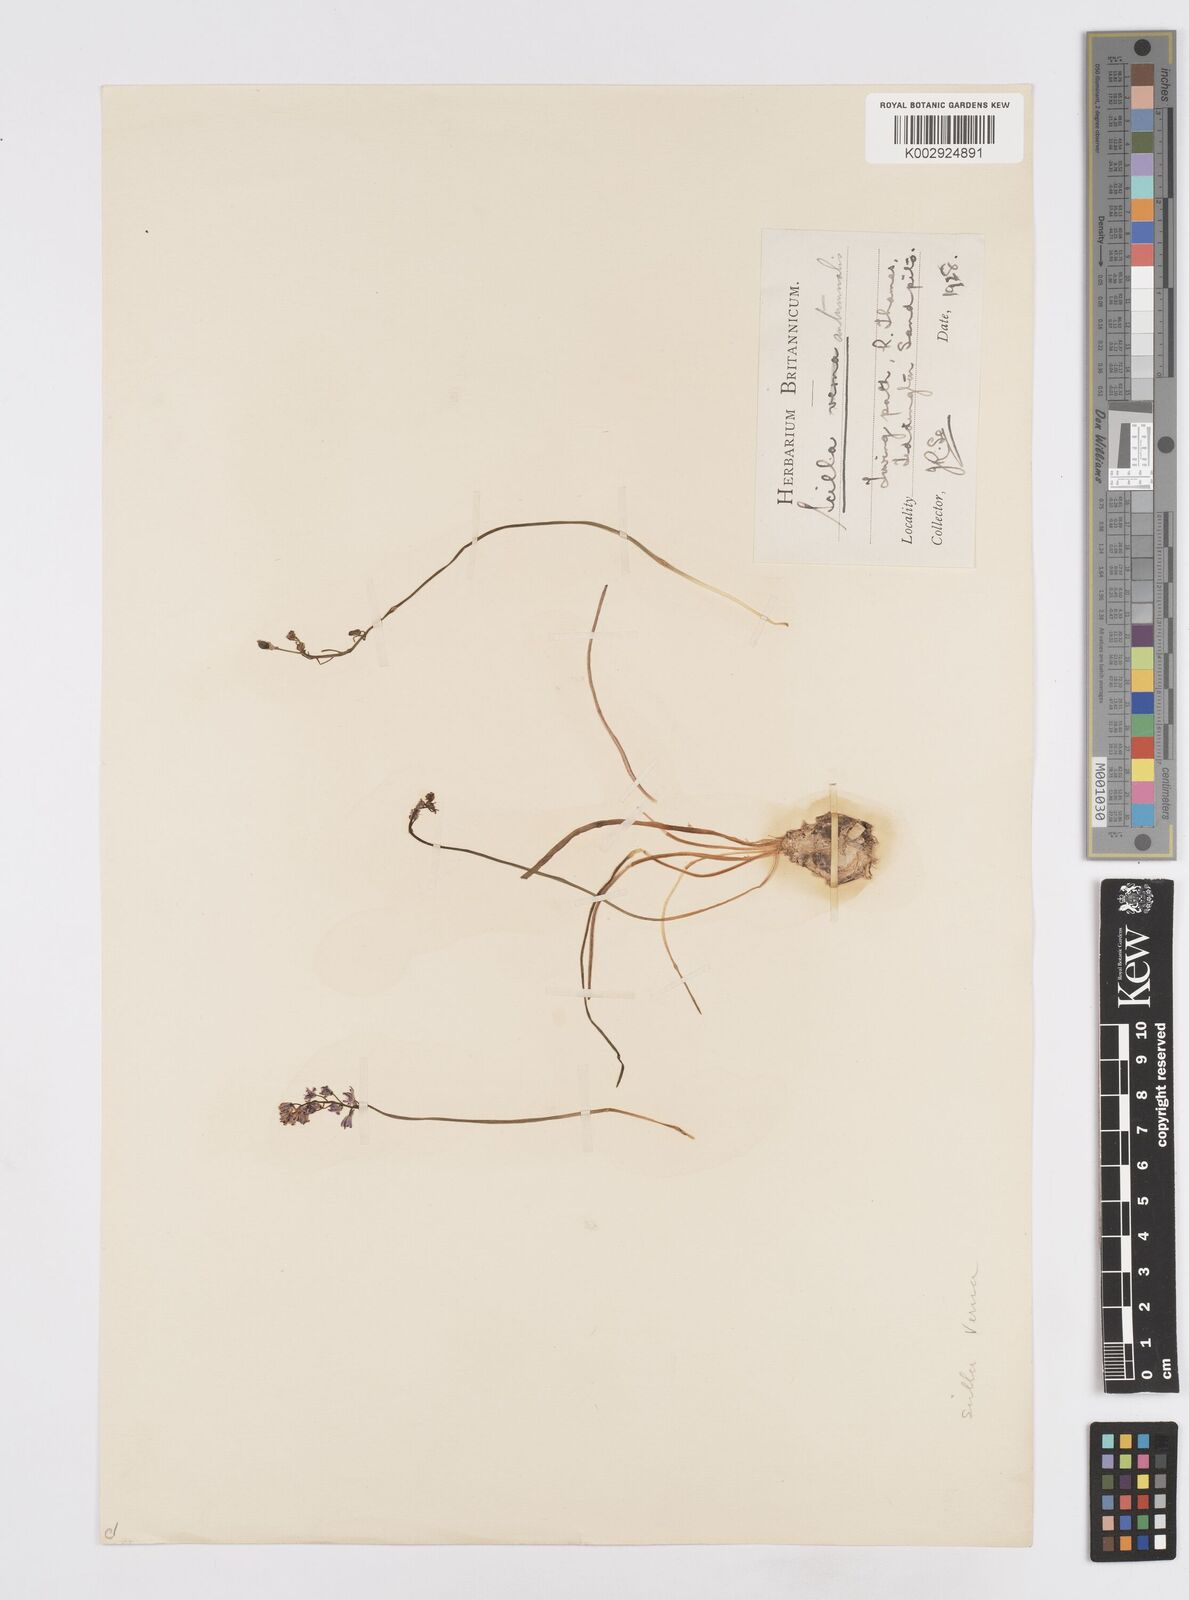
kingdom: Plantae
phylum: Tracheophyta
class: Liliopsida
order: Asparagales
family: Asparagaceae
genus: Prospero
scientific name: Prospero autumnale
